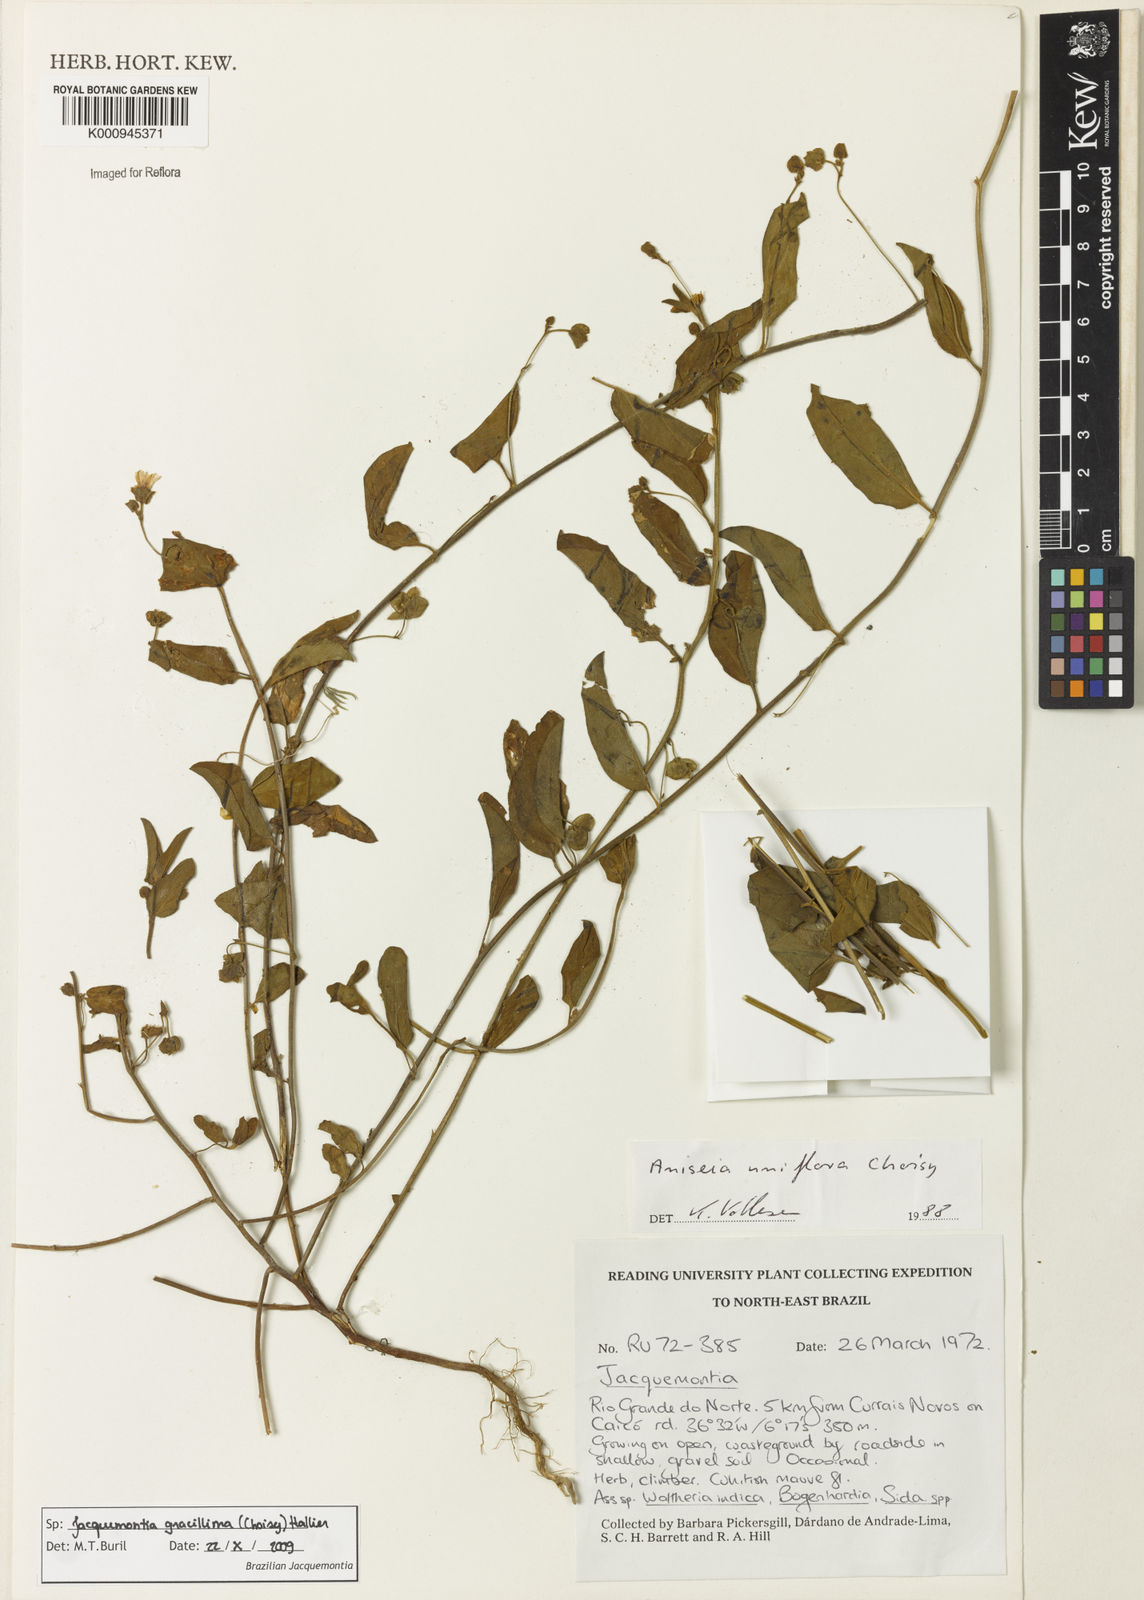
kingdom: Plantae
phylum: Tracheophyta
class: Magnoliopsida
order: Solanales
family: Convolvulaceae
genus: Jacquemontia
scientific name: Jacquemontia gracillima
